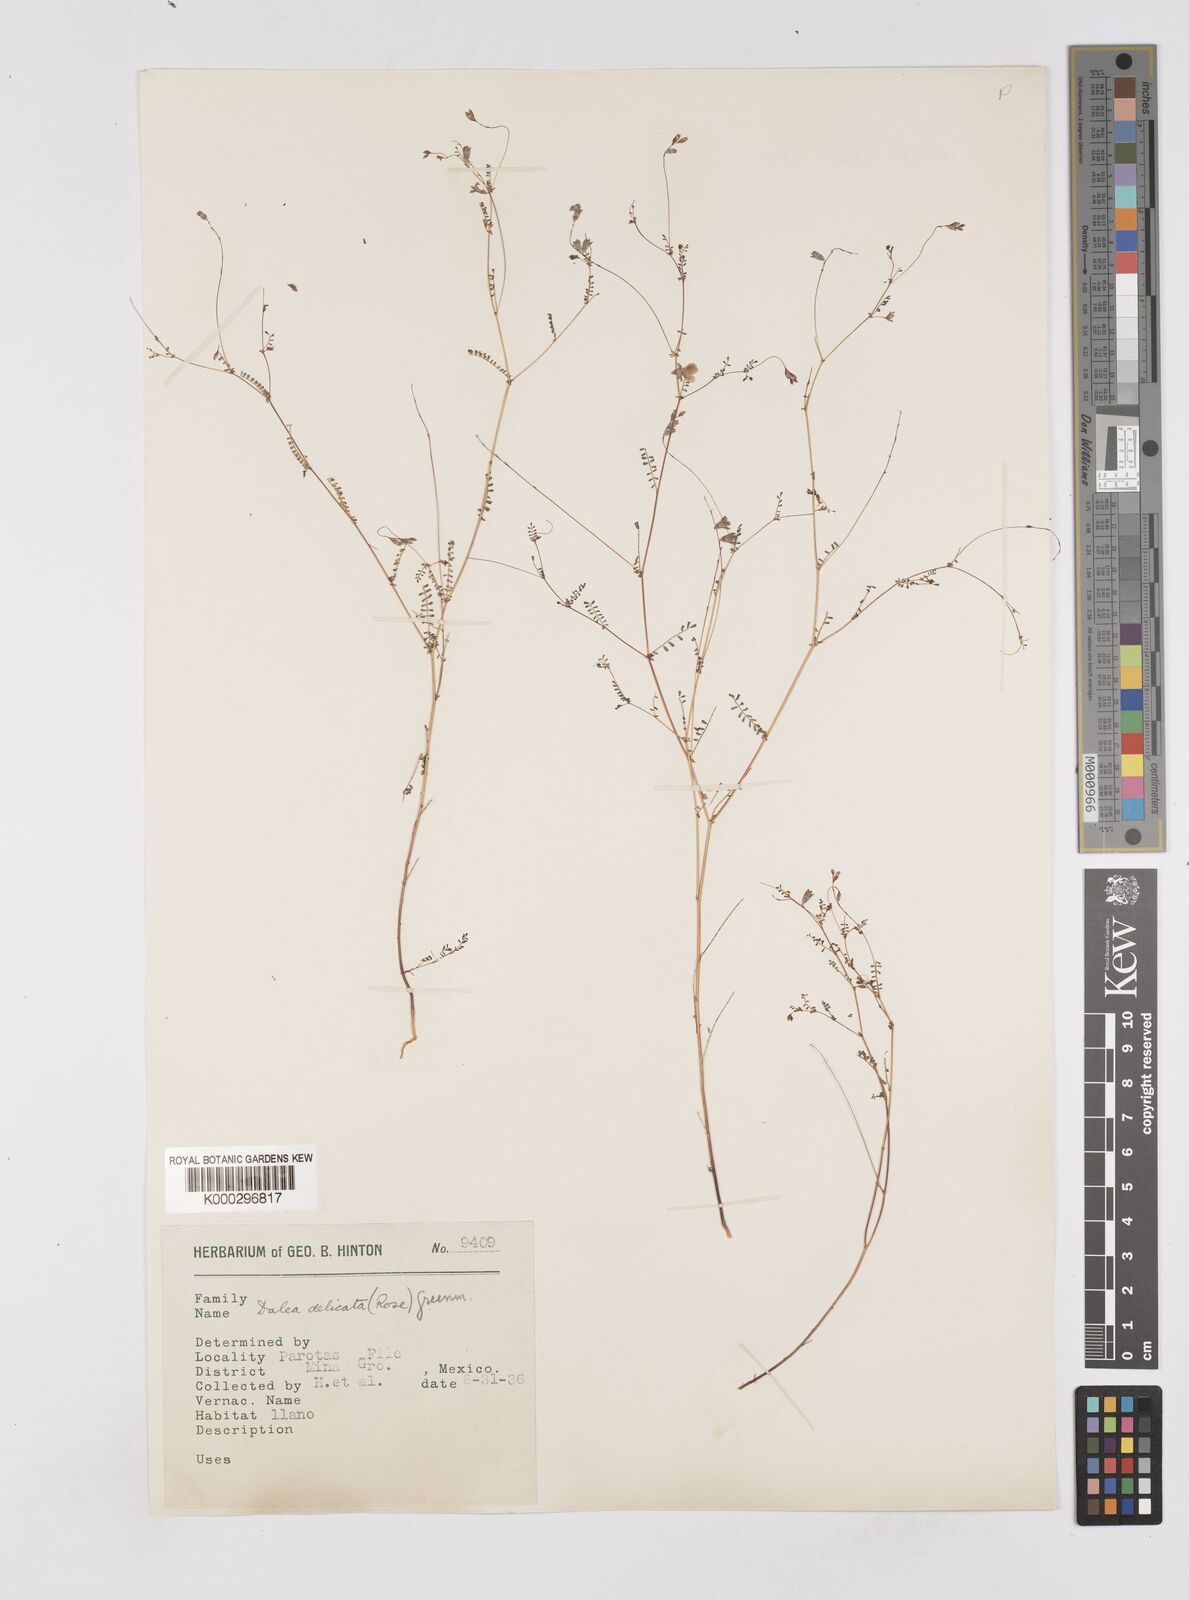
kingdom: Plantae
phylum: Tracheophyta
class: Magnoliopsida
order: Fabales
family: Fabaceae
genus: Marina
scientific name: Marina gracilis
